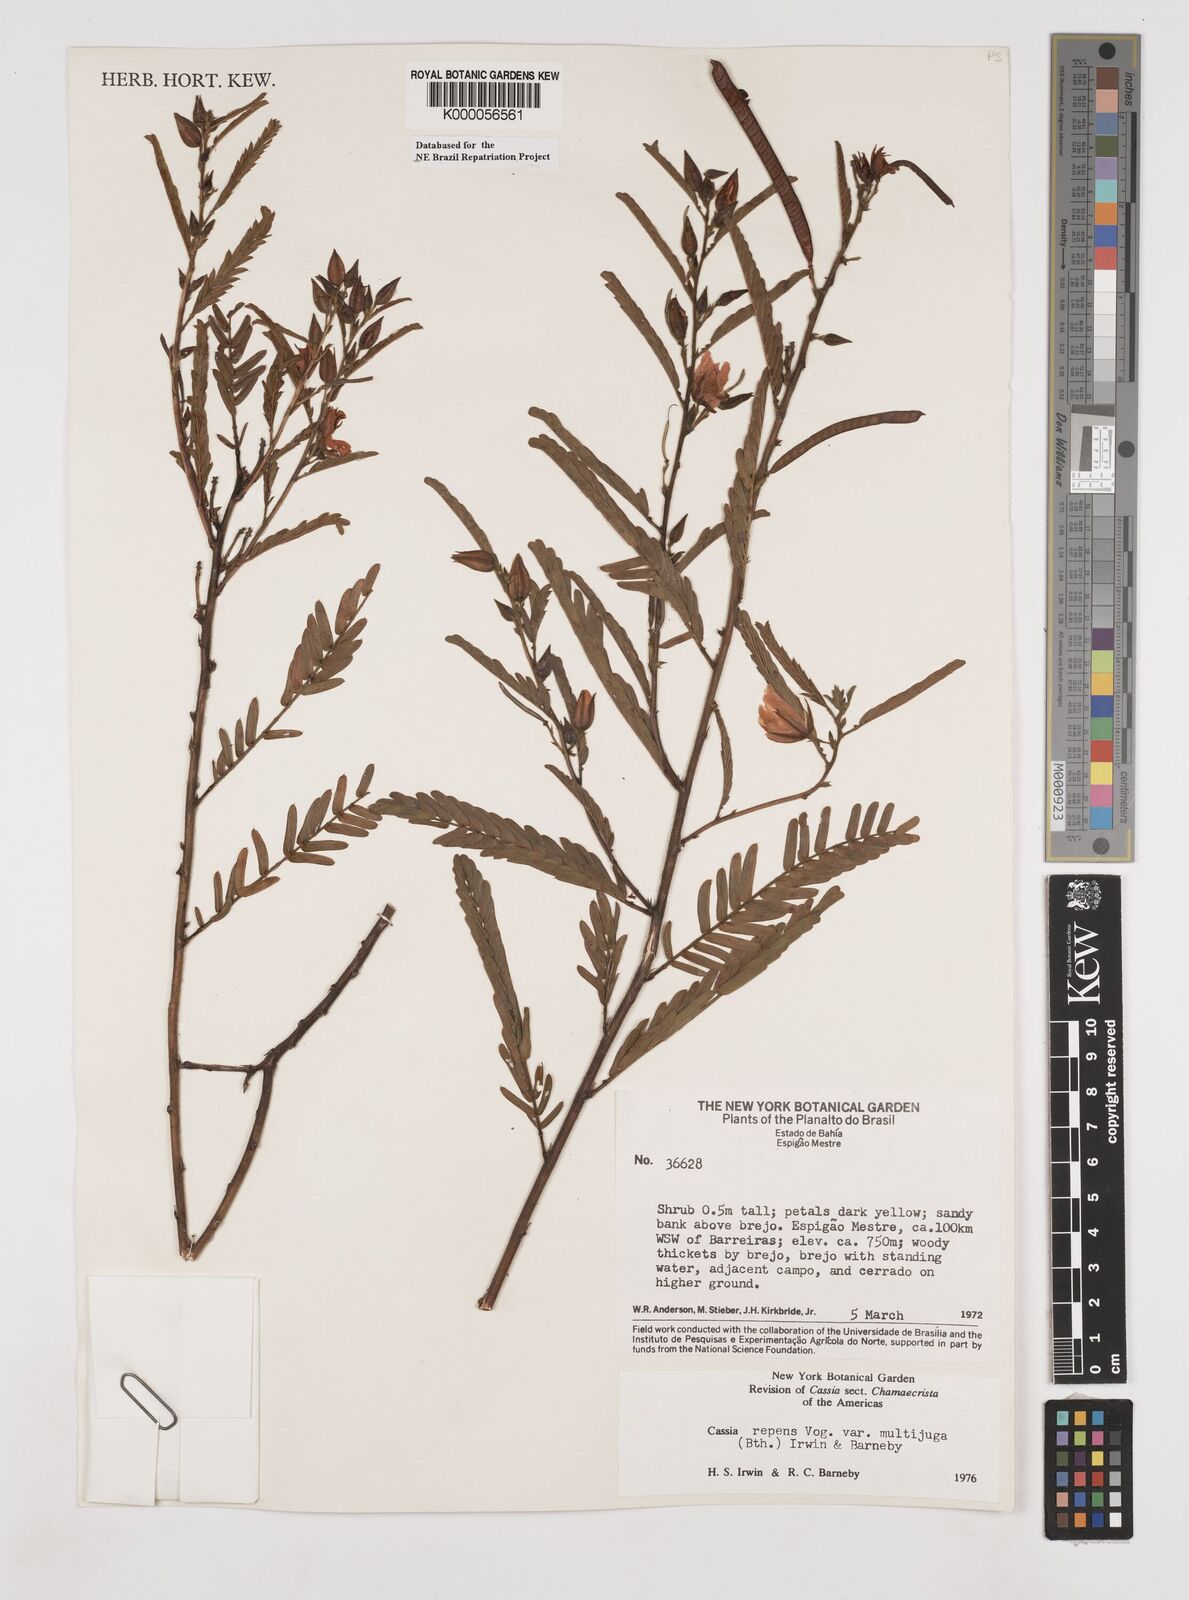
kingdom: Plantae
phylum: Tracheophyta
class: Magnoliopsida
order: Fabales
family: Fabaceae
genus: Chamaecrista
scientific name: Chamaecrista repens
